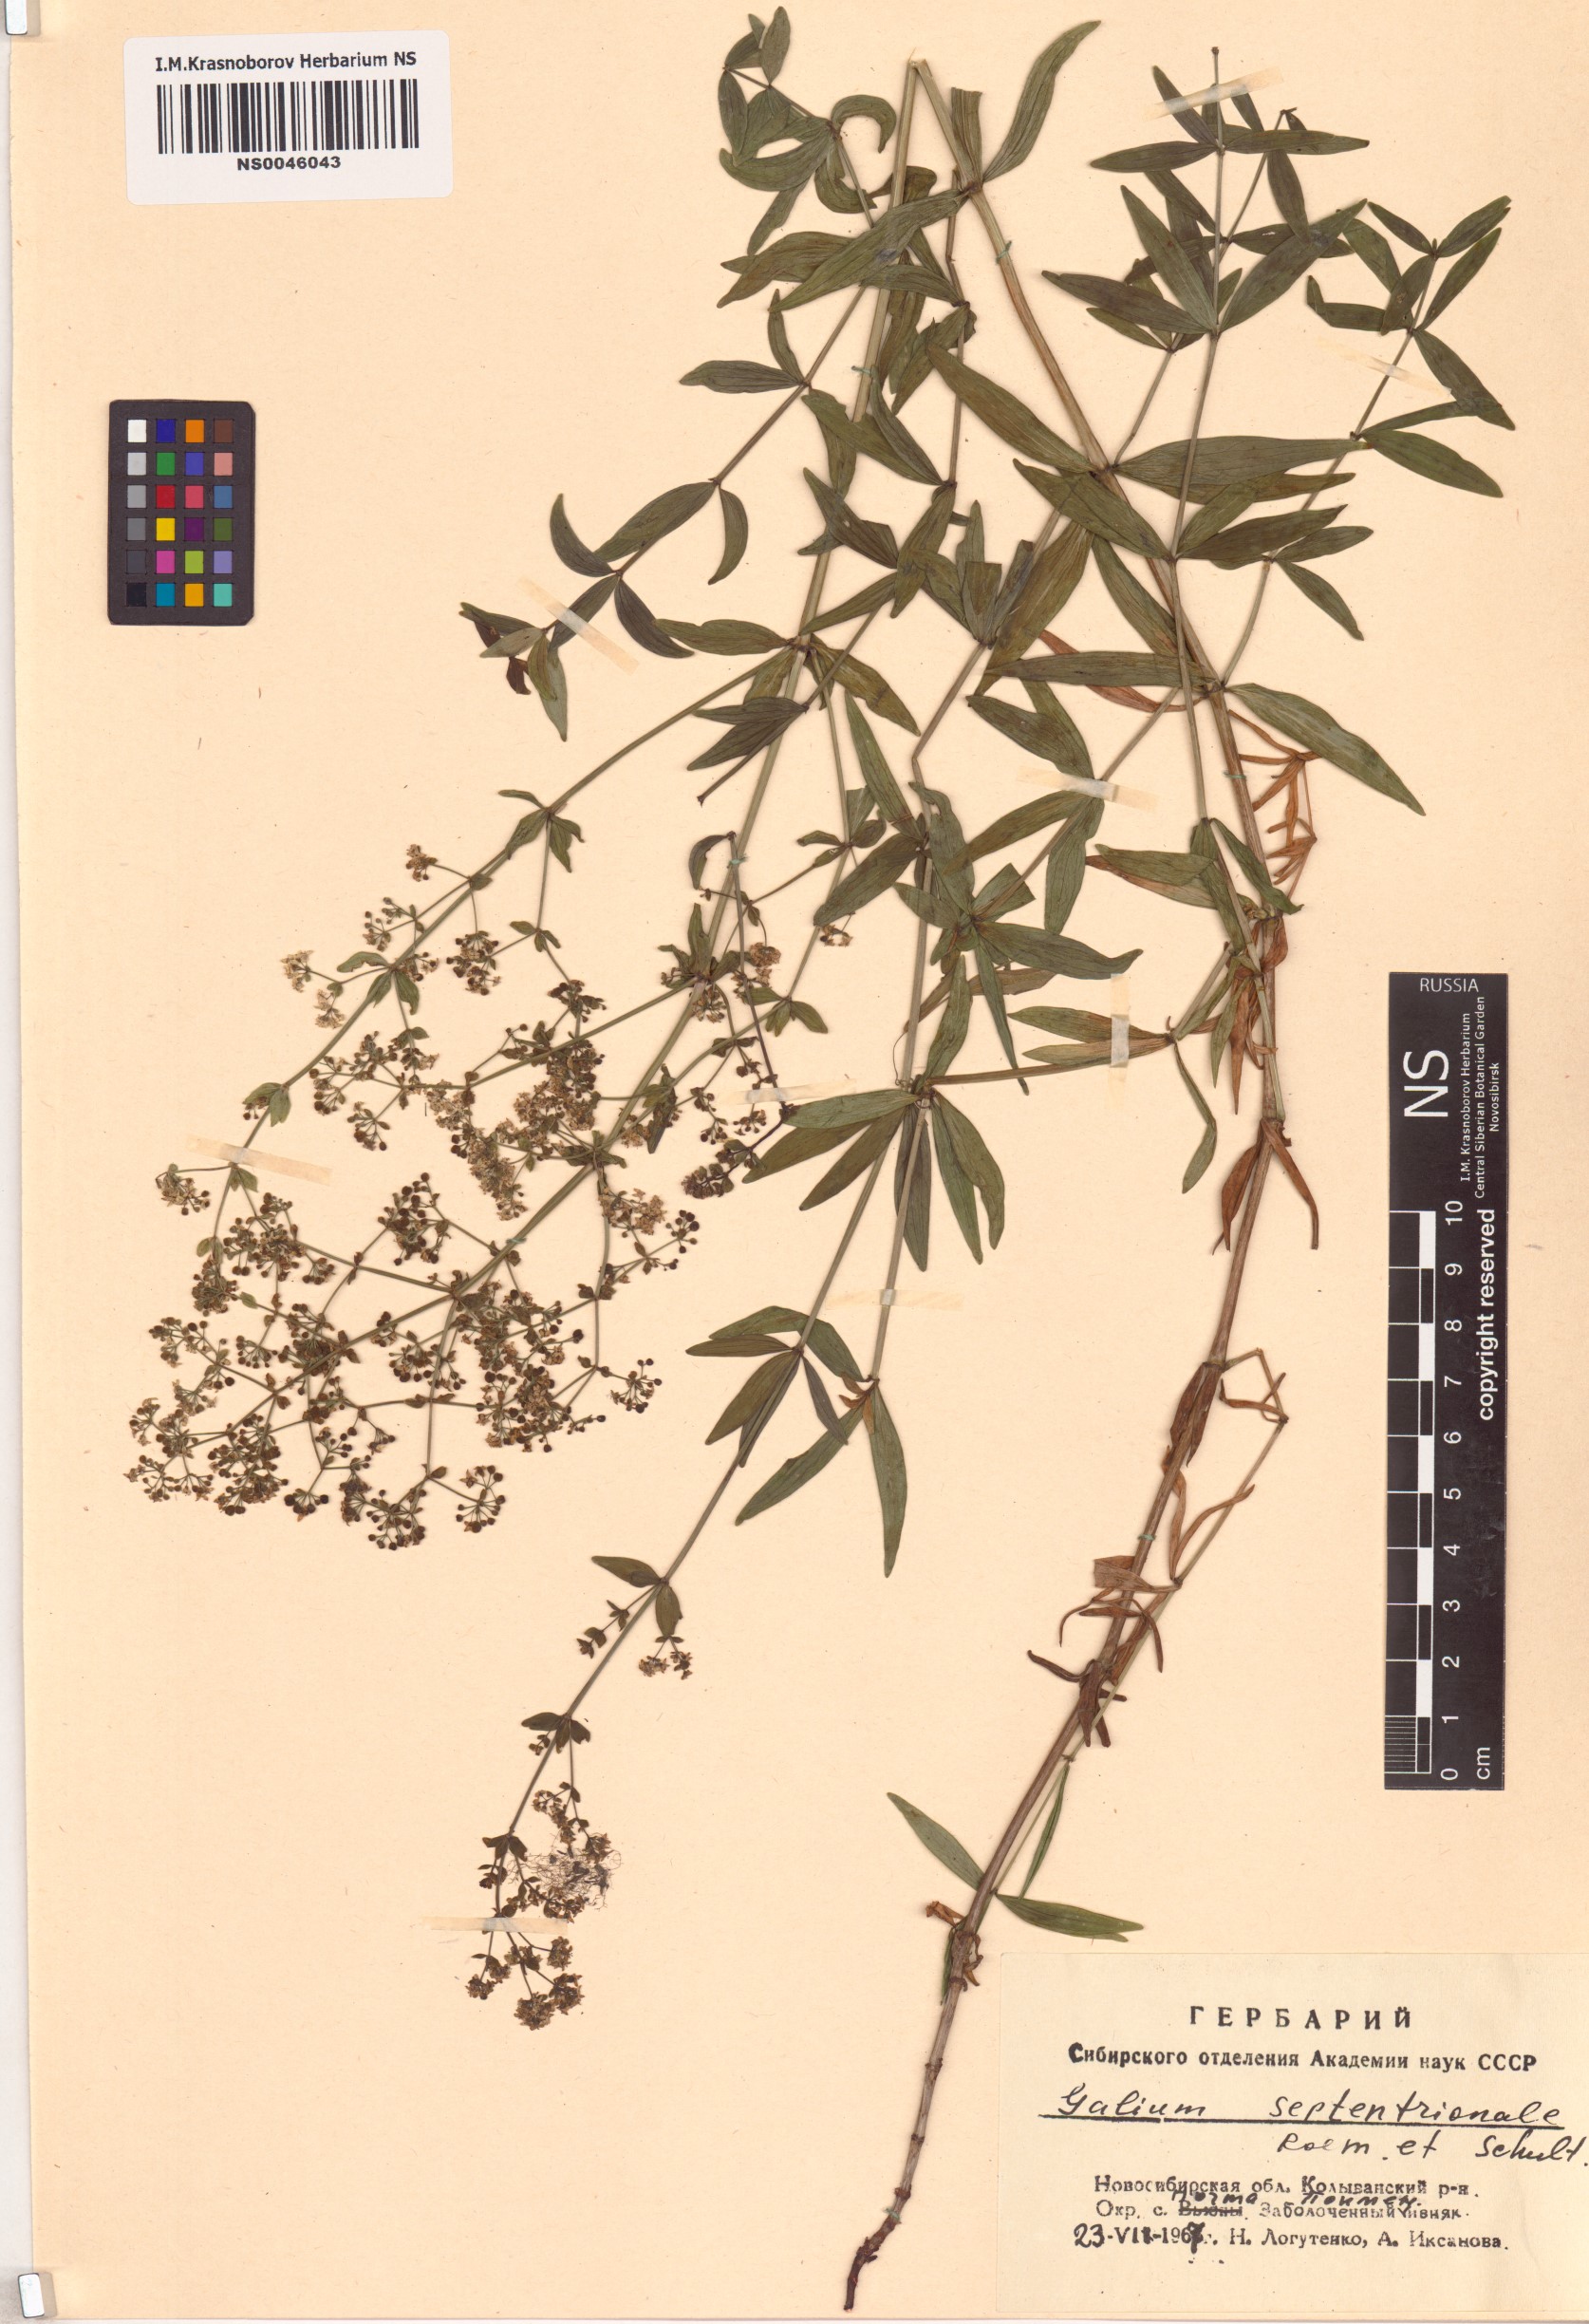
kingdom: Plantae
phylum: Tracheophyta
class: Magnoliopsida
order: Gentianales
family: Rubiaceae
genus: Galium
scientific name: Galium boreale
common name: Northern bedstraw
